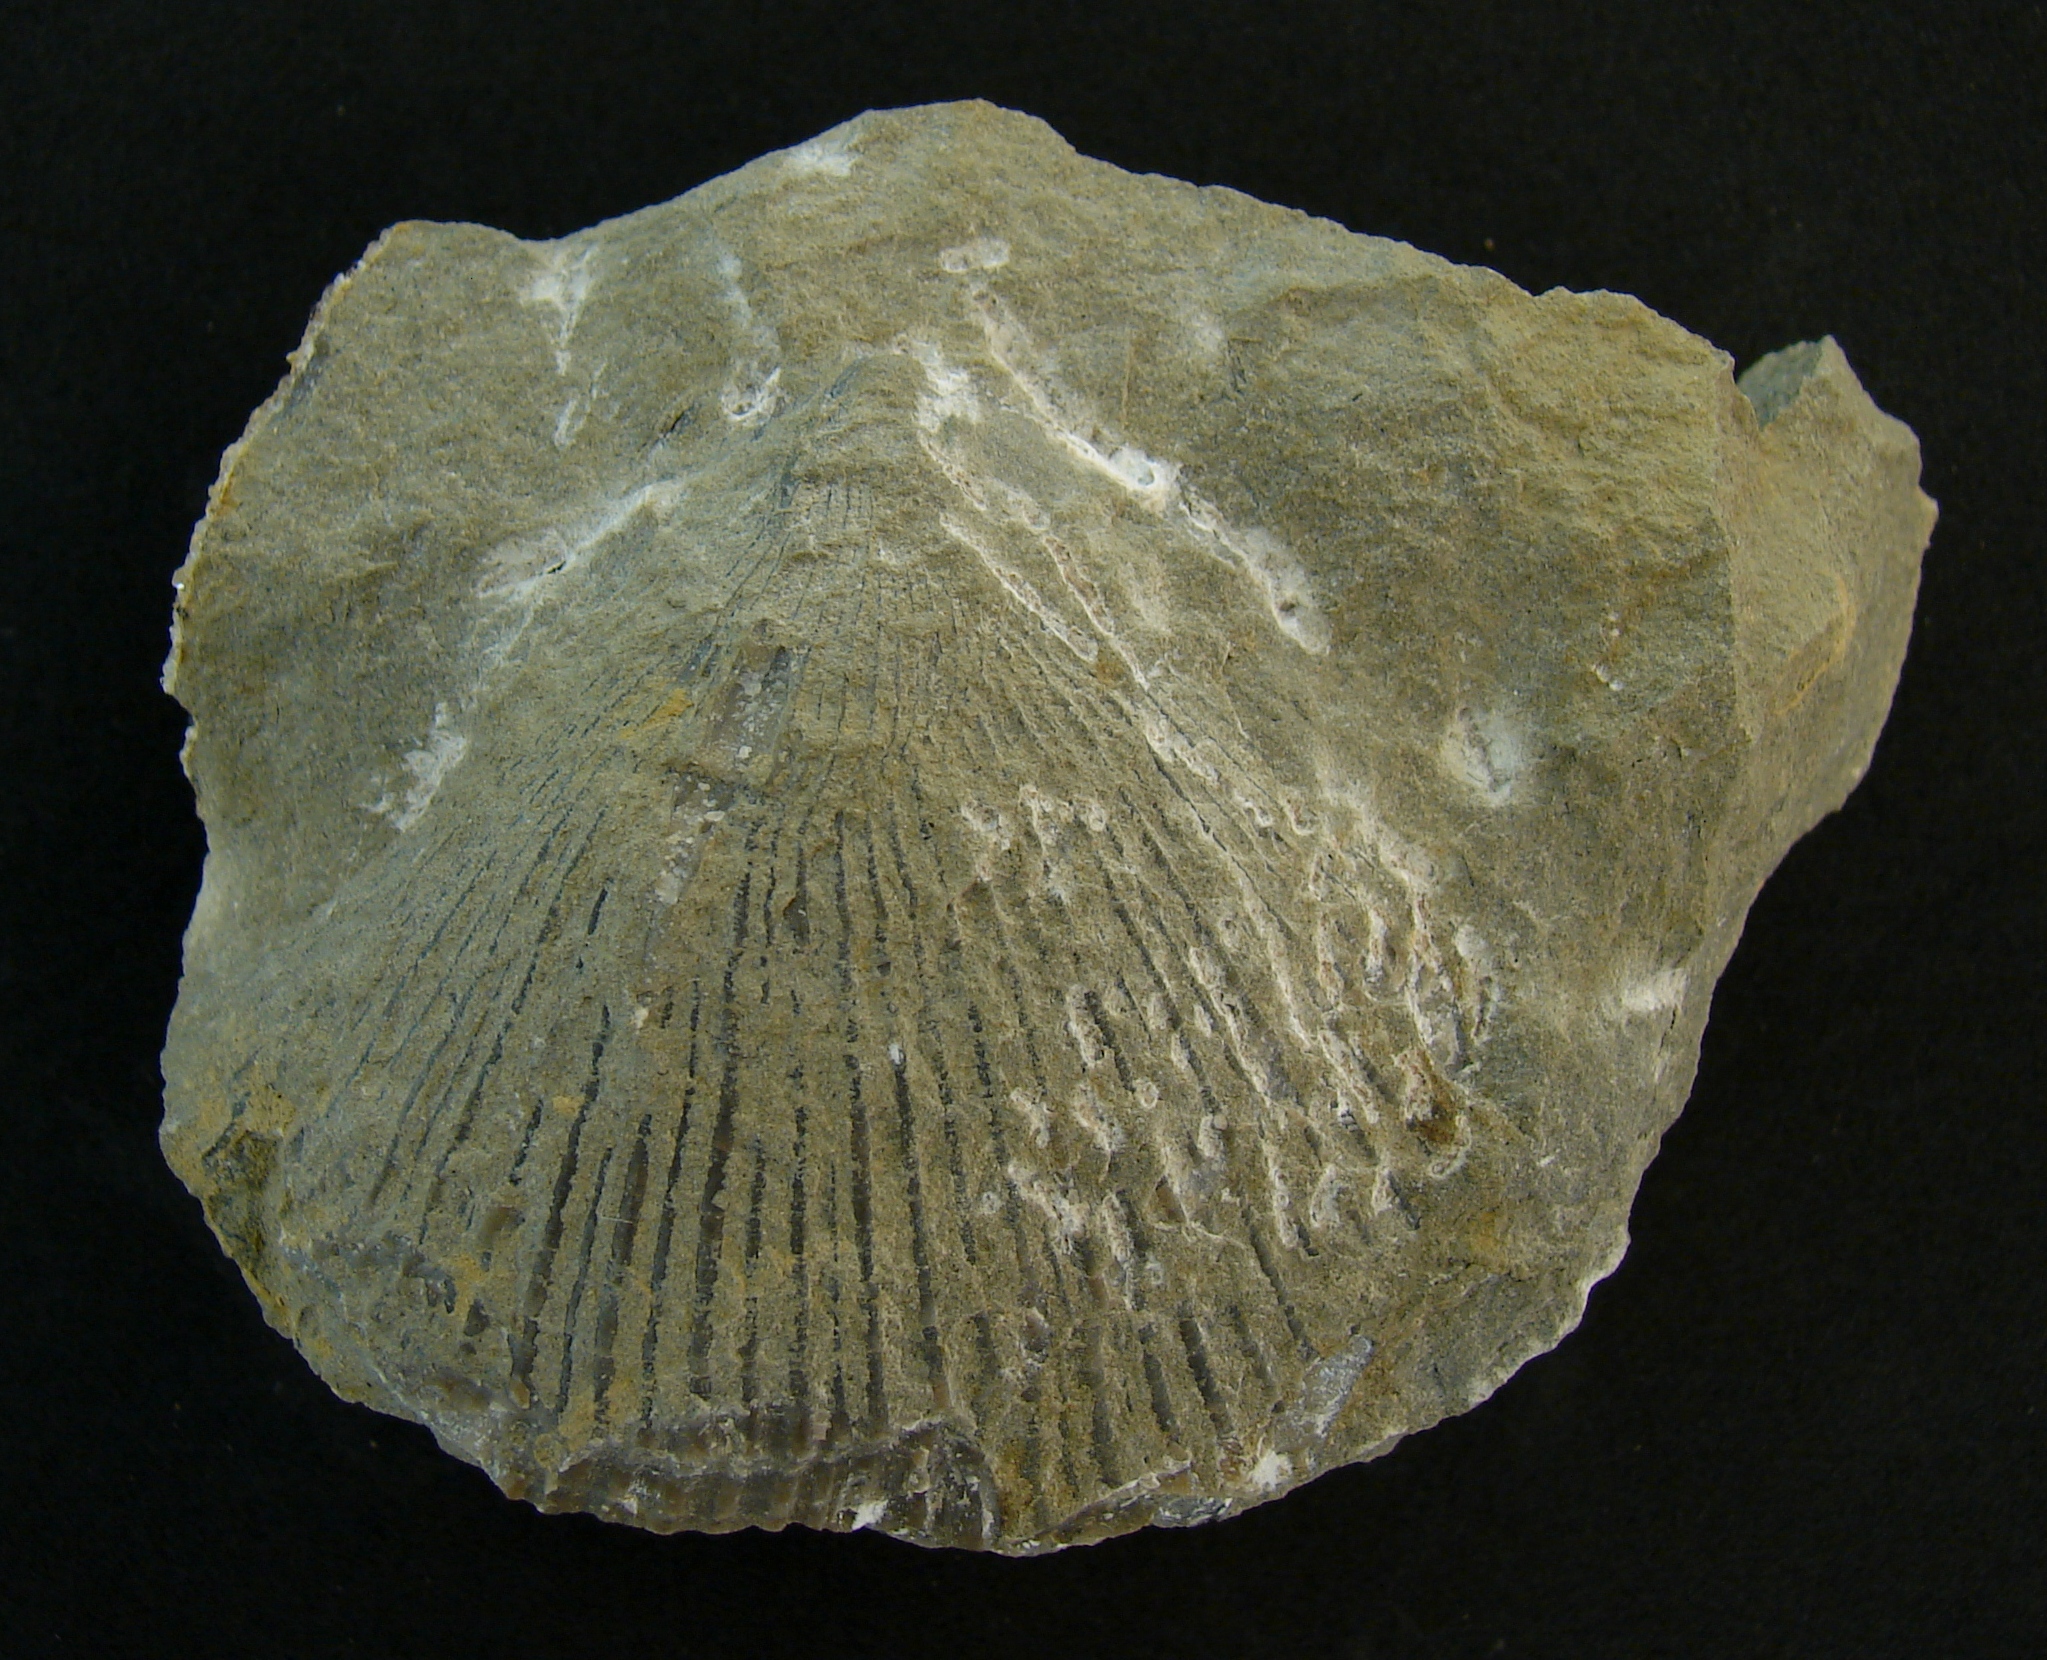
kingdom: Animalia
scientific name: Animalia
